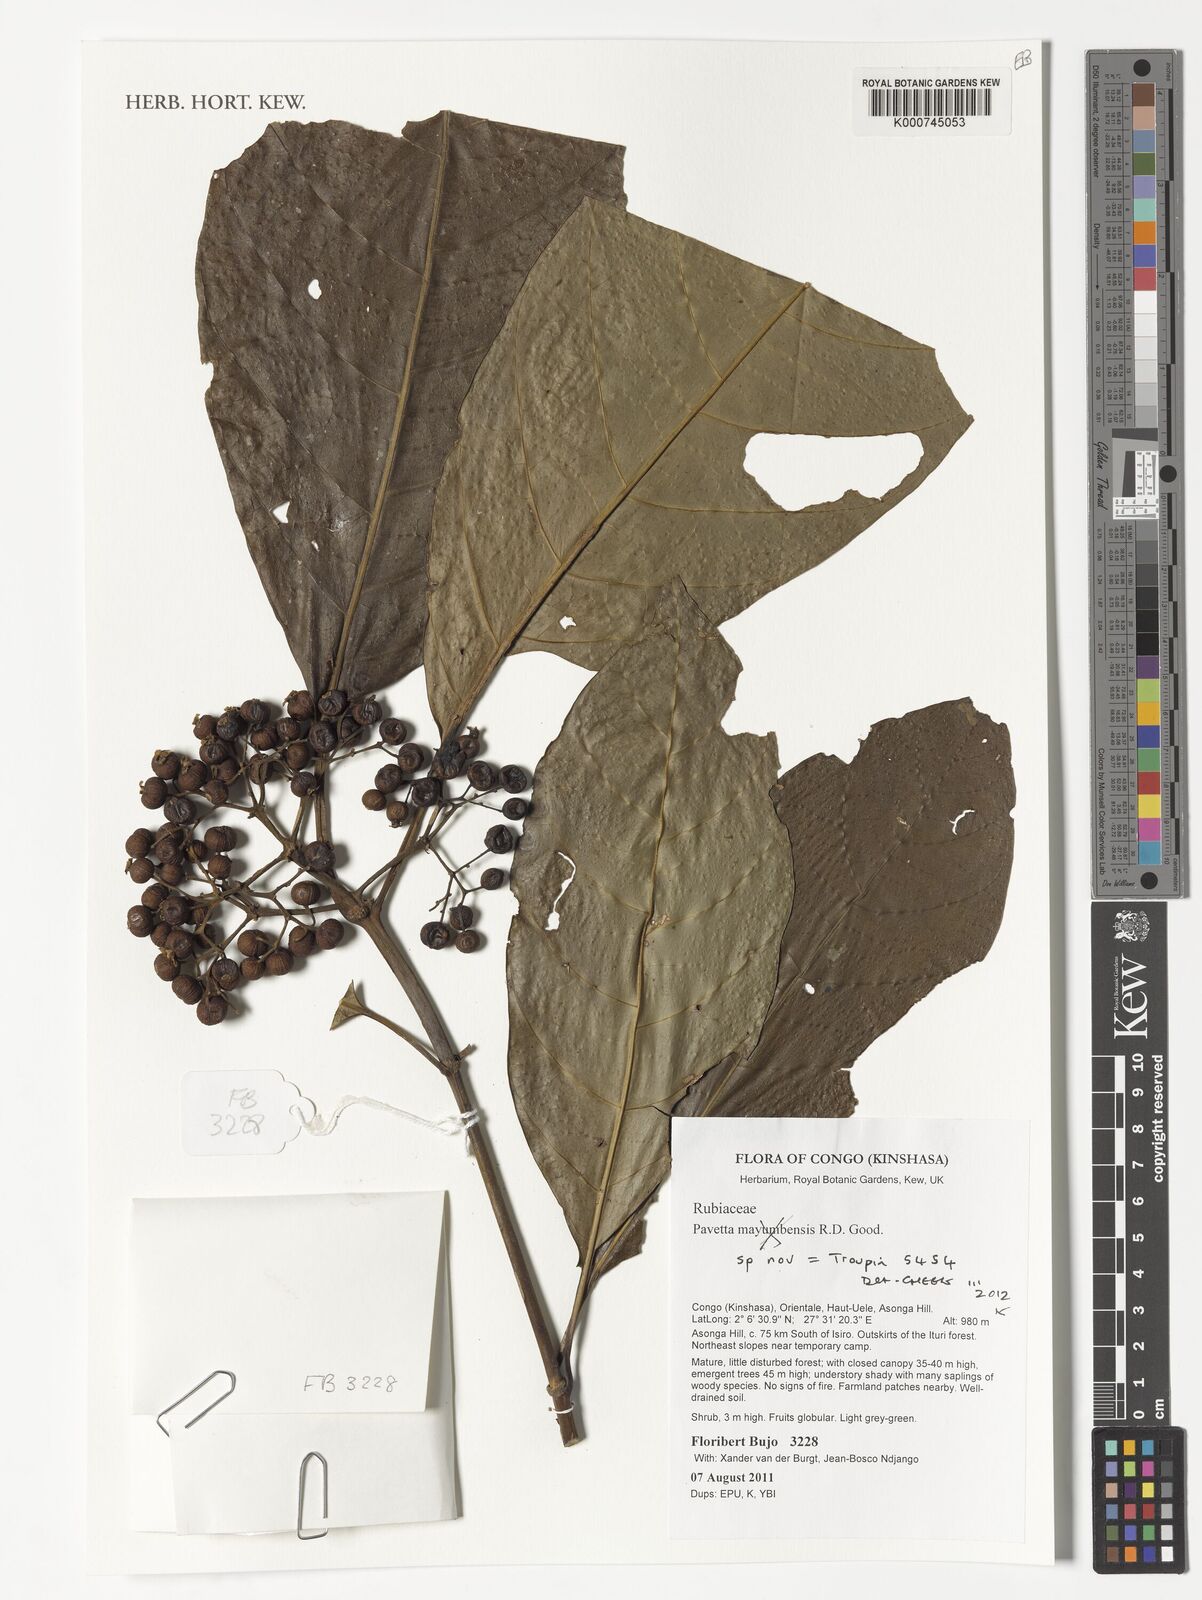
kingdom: Plantae
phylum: Tracheophyta
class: Magnoliopsida
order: Gentianales
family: Rubiaceae
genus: Pavetta
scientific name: Pavetta
